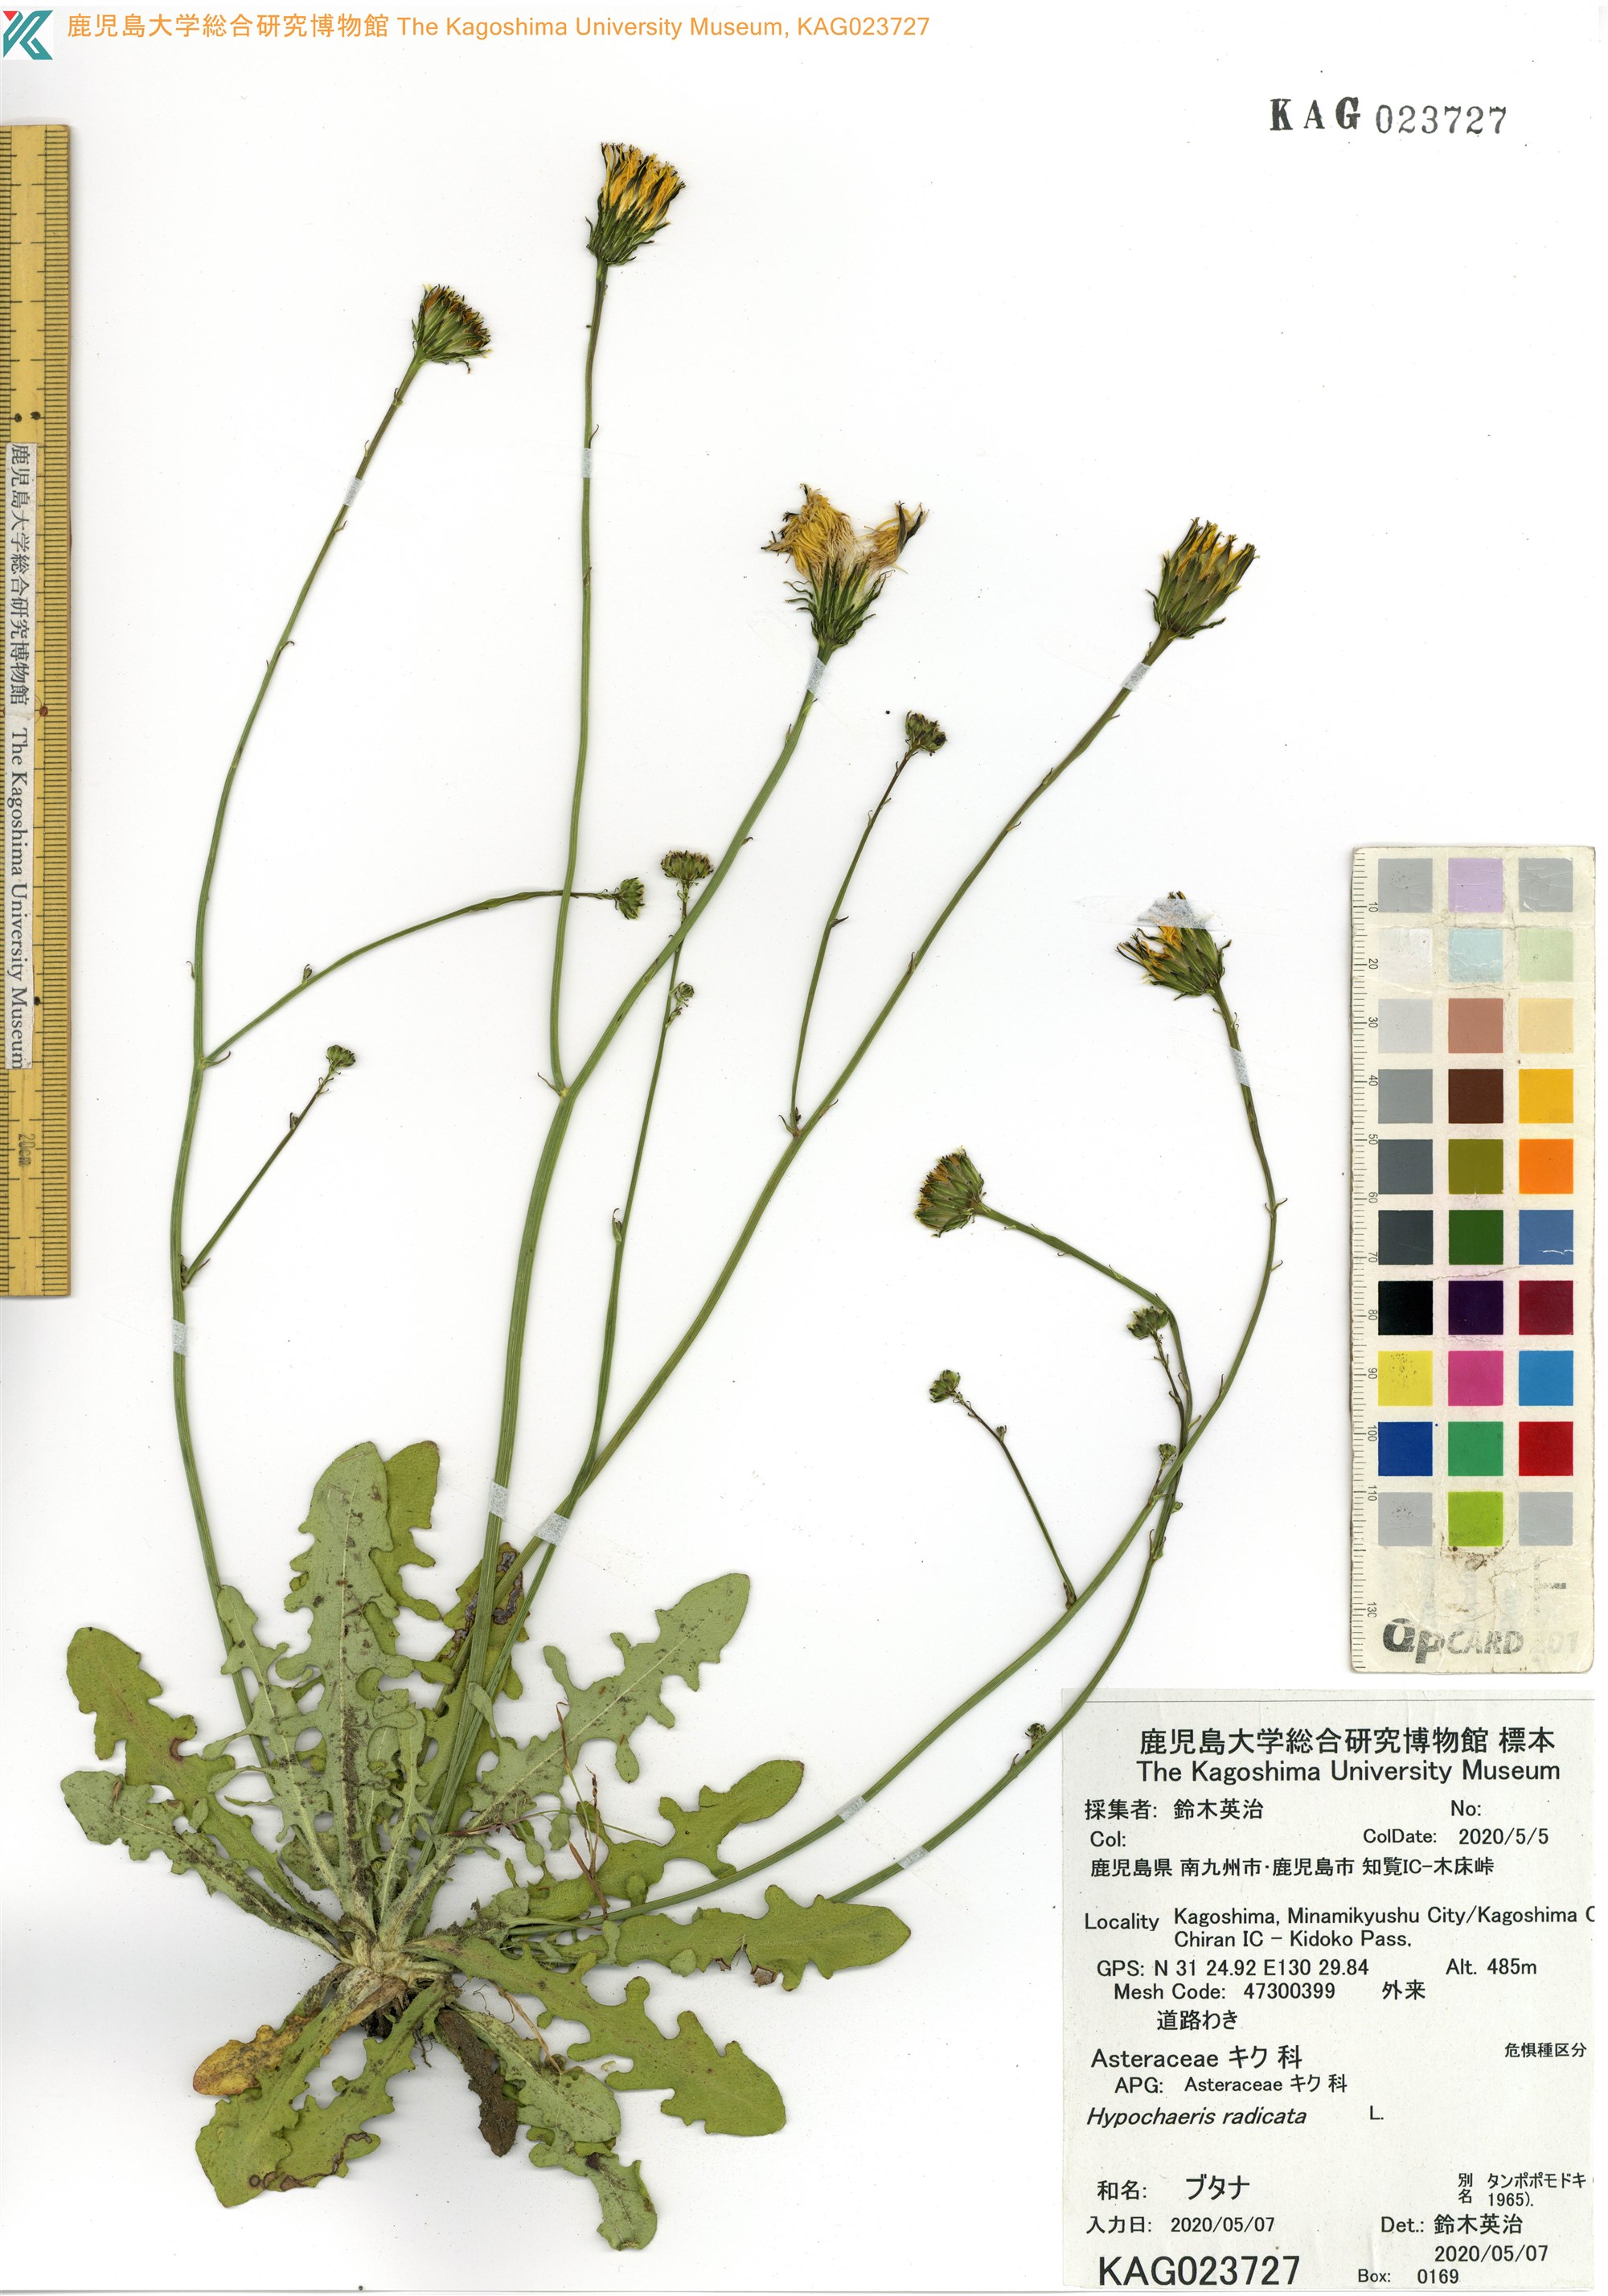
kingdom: Plantae
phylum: Tracheophyta
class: Magnoliopsida
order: Asterales
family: Asteraceae
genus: Hypochaeris
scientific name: Hypochaeris radicata
